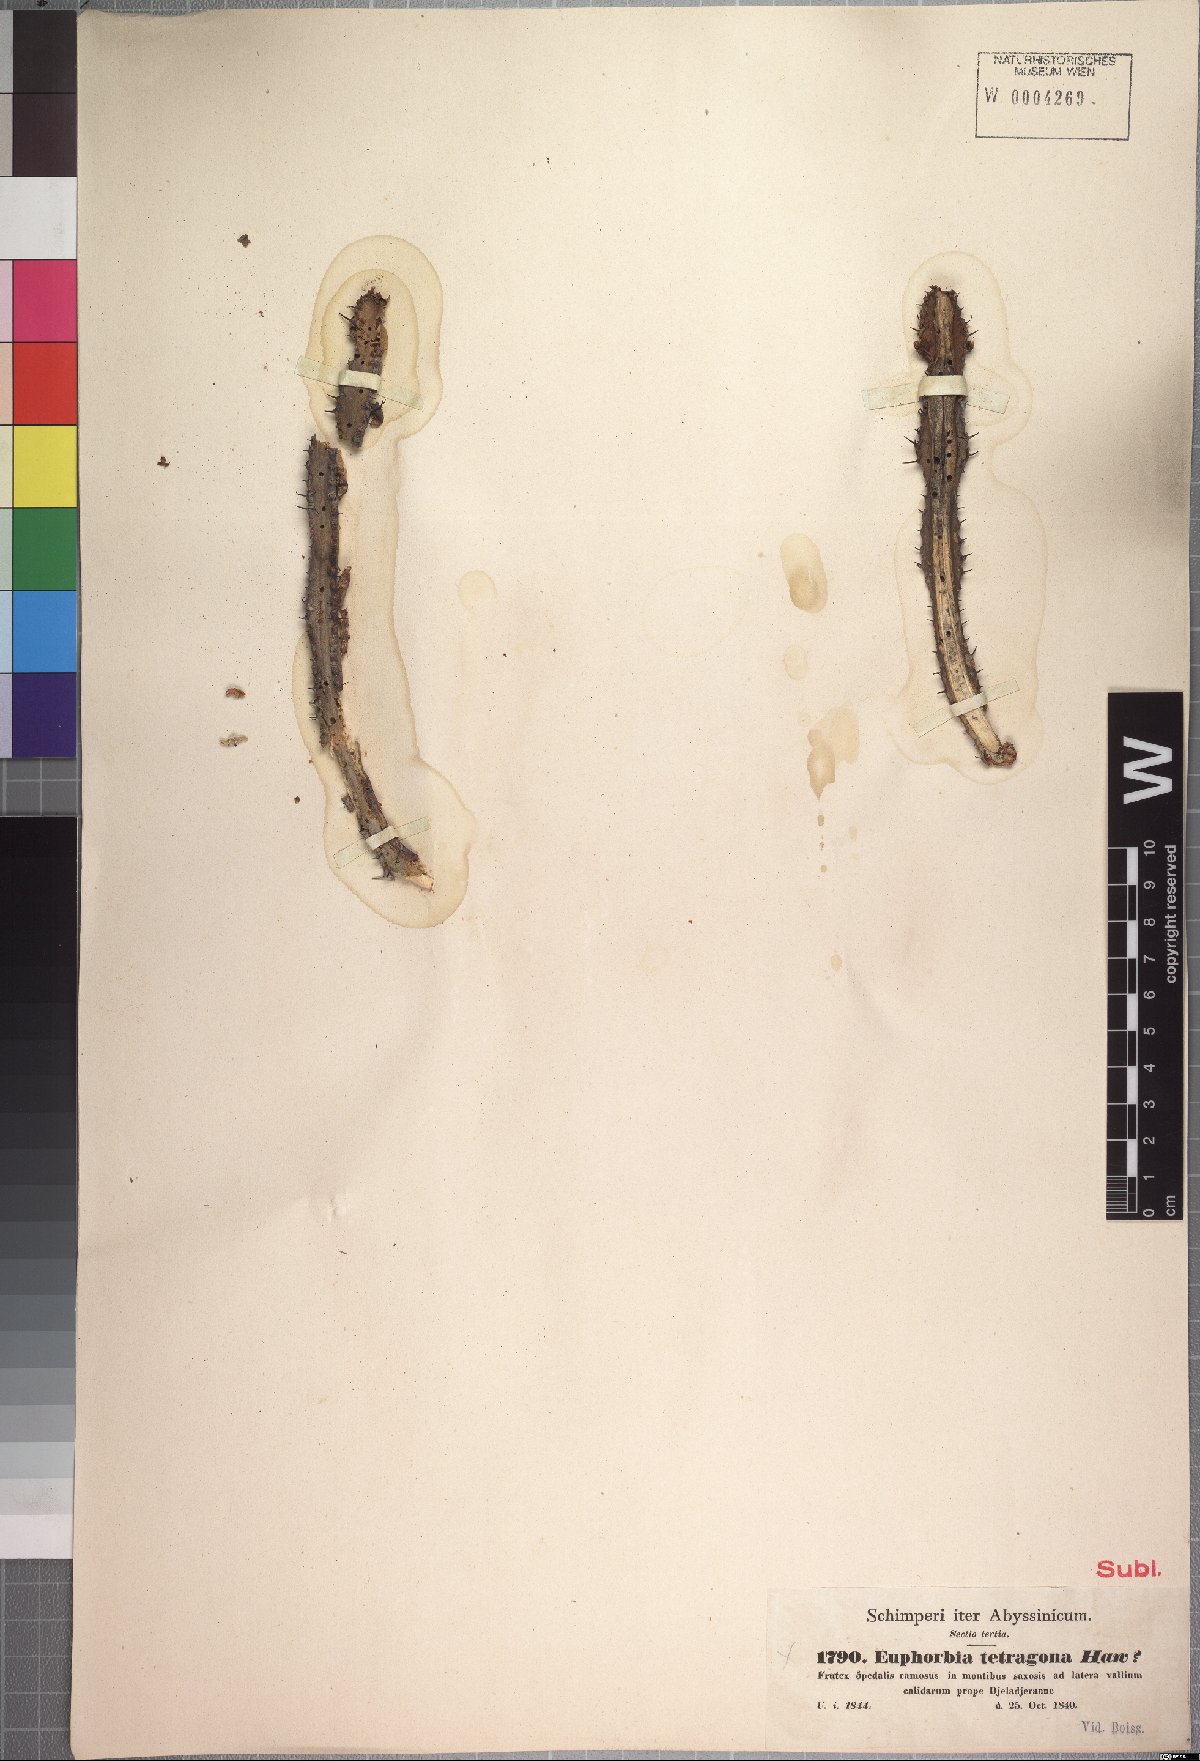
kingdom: Plantae
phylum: Tracheophyta
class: Magnoliopsida
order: Malpighiales
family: Euphorbiaceae
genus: Euphorbia
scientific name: Euphorbia polyacantha
